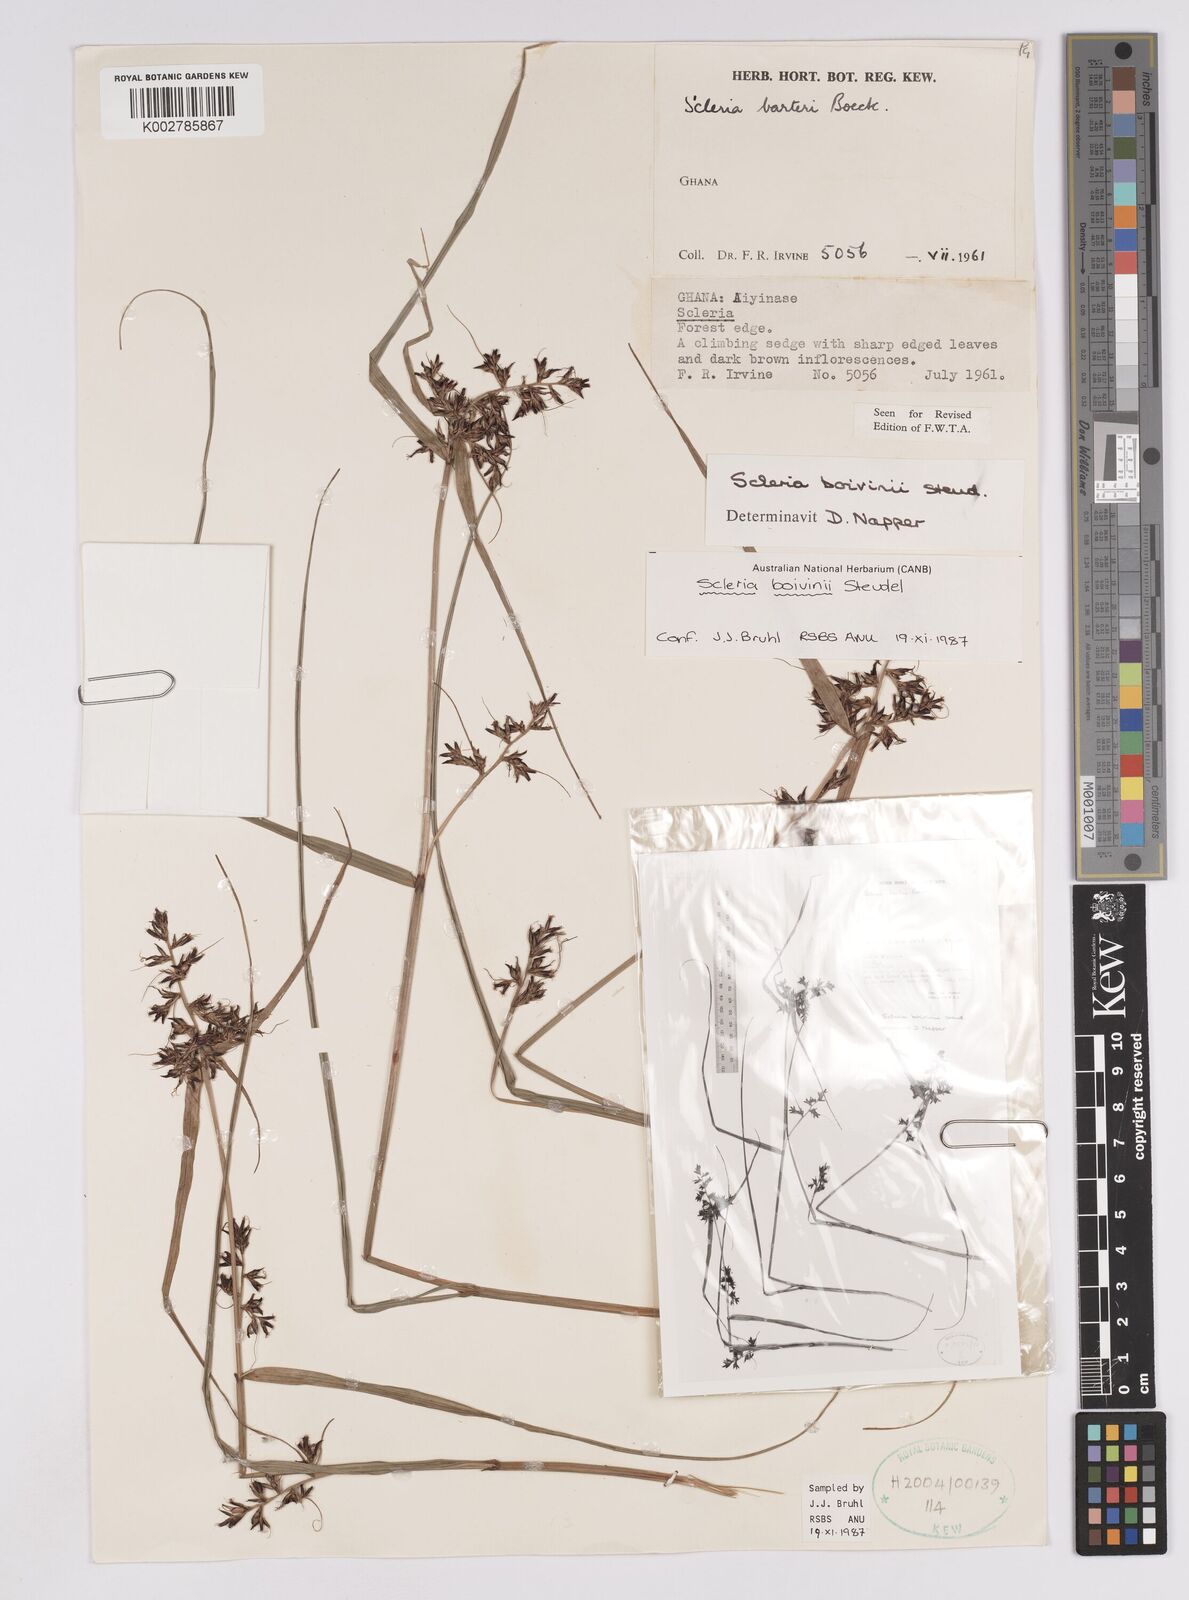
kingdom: Plantae
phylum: Tracheophyta
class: Liliopsida
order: Poales
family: Cyperaceae
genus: Scleria
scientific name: Scleria boivinii
